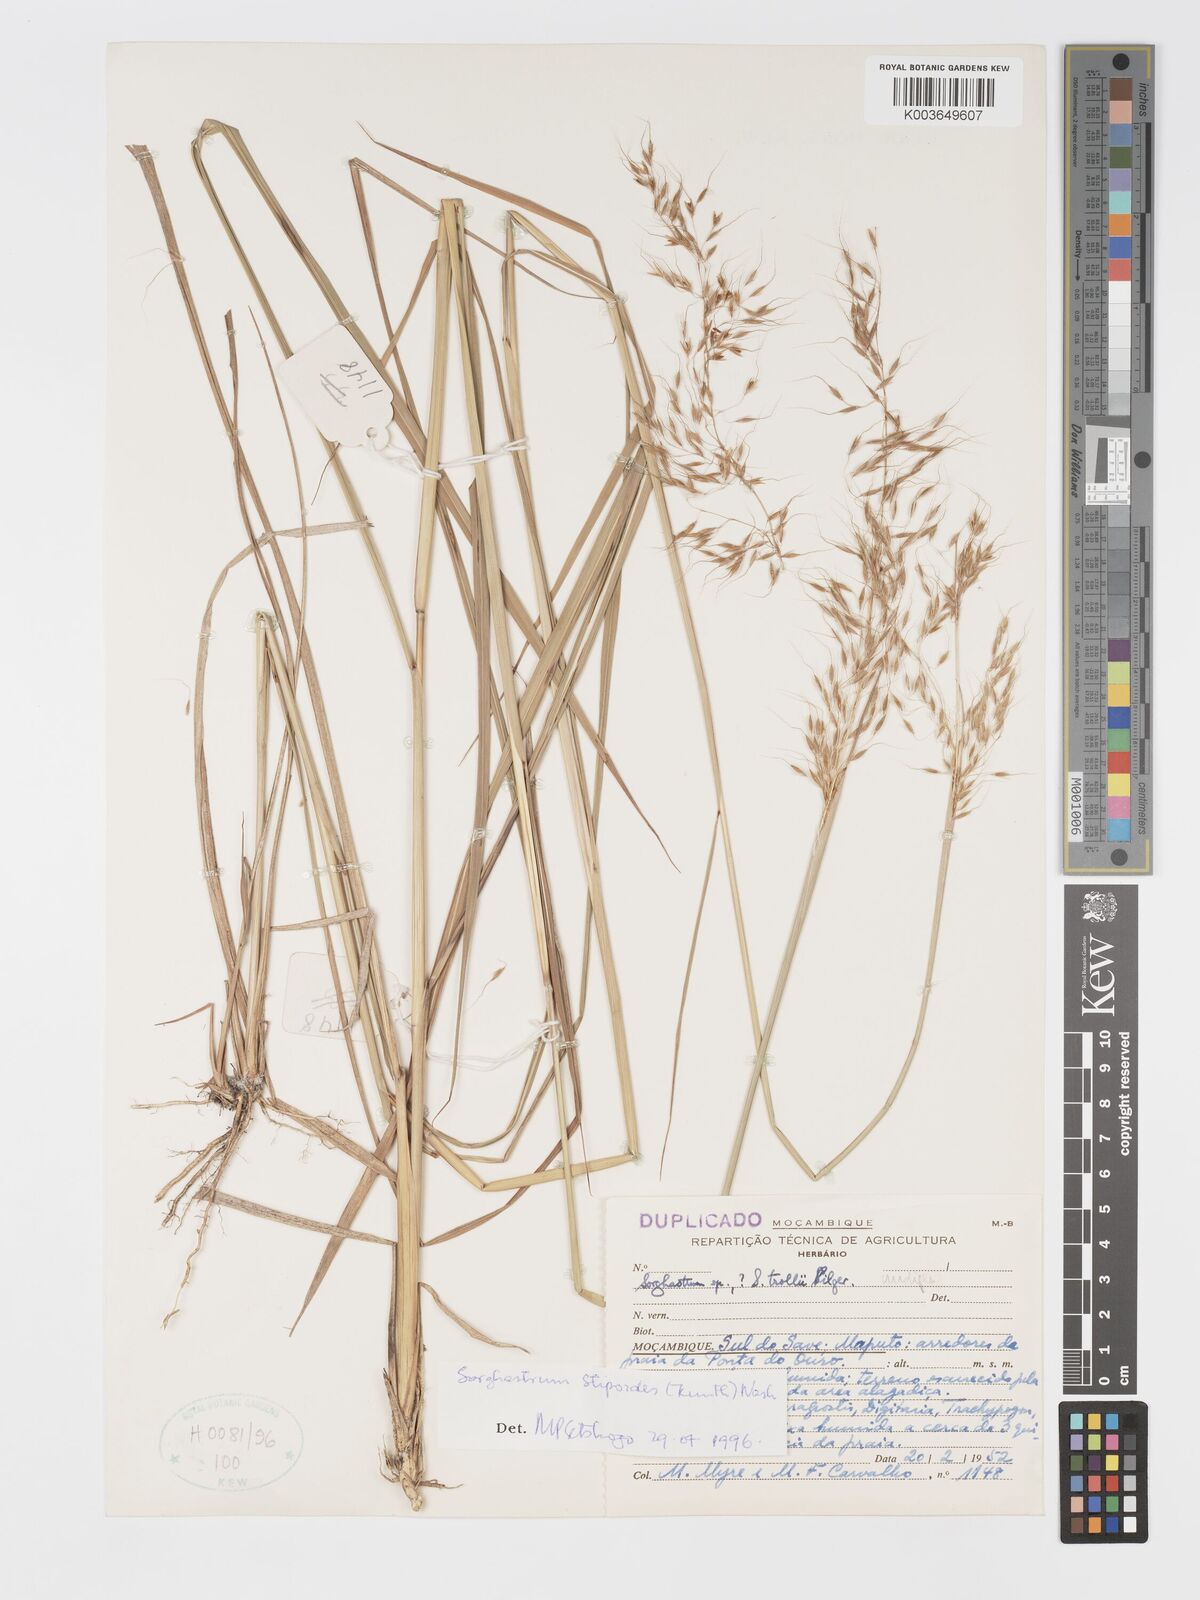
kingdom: Plantae
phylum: Tracheophyta
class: Liliopsida
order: Poales
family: Poaceae
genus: Sorghastrum
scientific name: Sorghastrum stipoides
